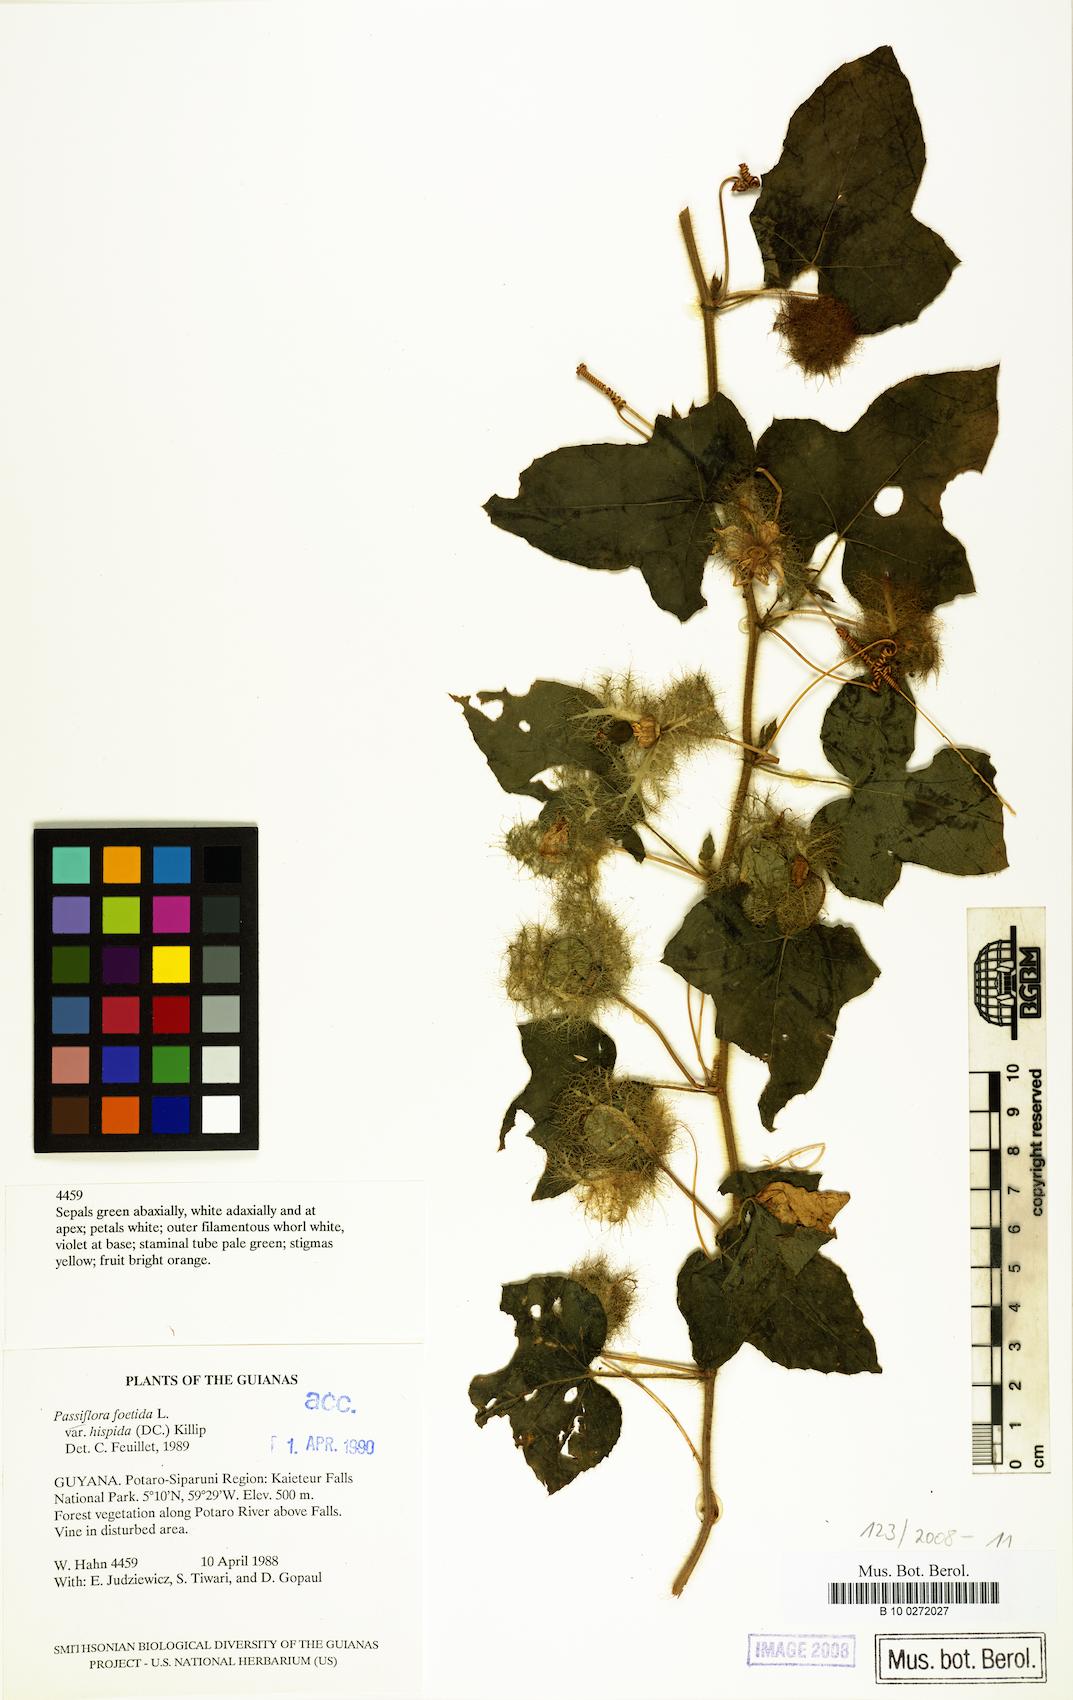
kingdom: Plantae
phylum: Tracheophyta
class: Magnoliopsida
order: Malpighiales
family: Passifloraceae
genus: Passiflora
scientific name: Passiflora vesicaria
